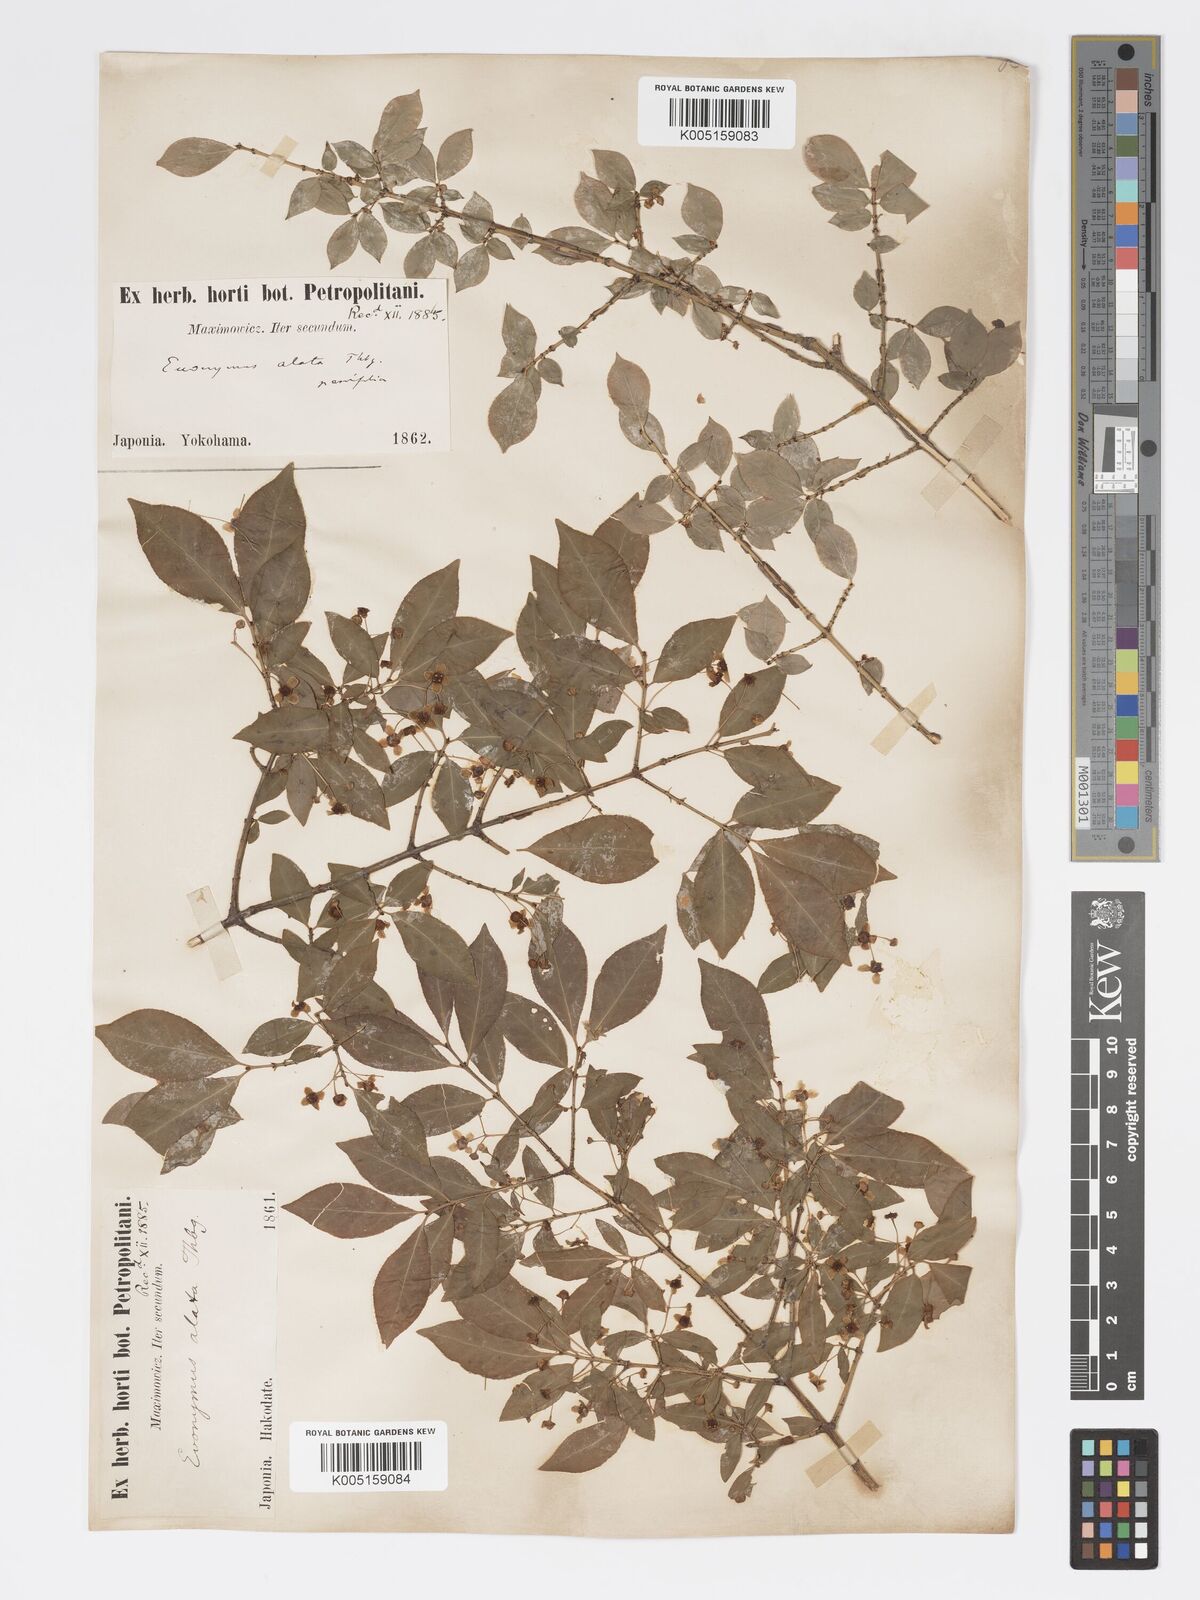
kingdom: Plantae
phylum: Tracheophyta
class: Magnoliopsida
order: Celastrales
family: Celastraceae
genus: Euonymus
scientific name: Euonymus
